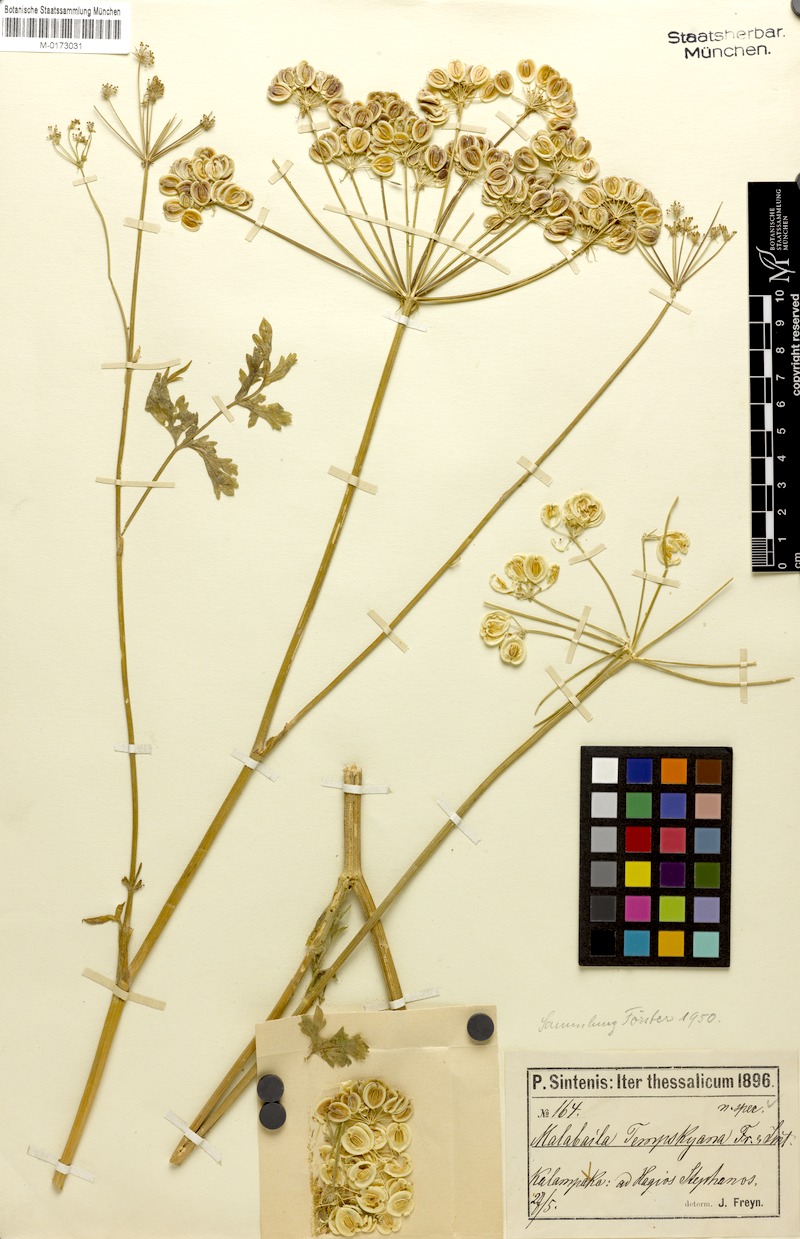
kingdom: Plantae
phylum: Tracheophyta
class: Magnoliopsida
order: Apiales
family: Apiaceae
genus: Leiotulus
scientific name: Leiotulus involucratus
